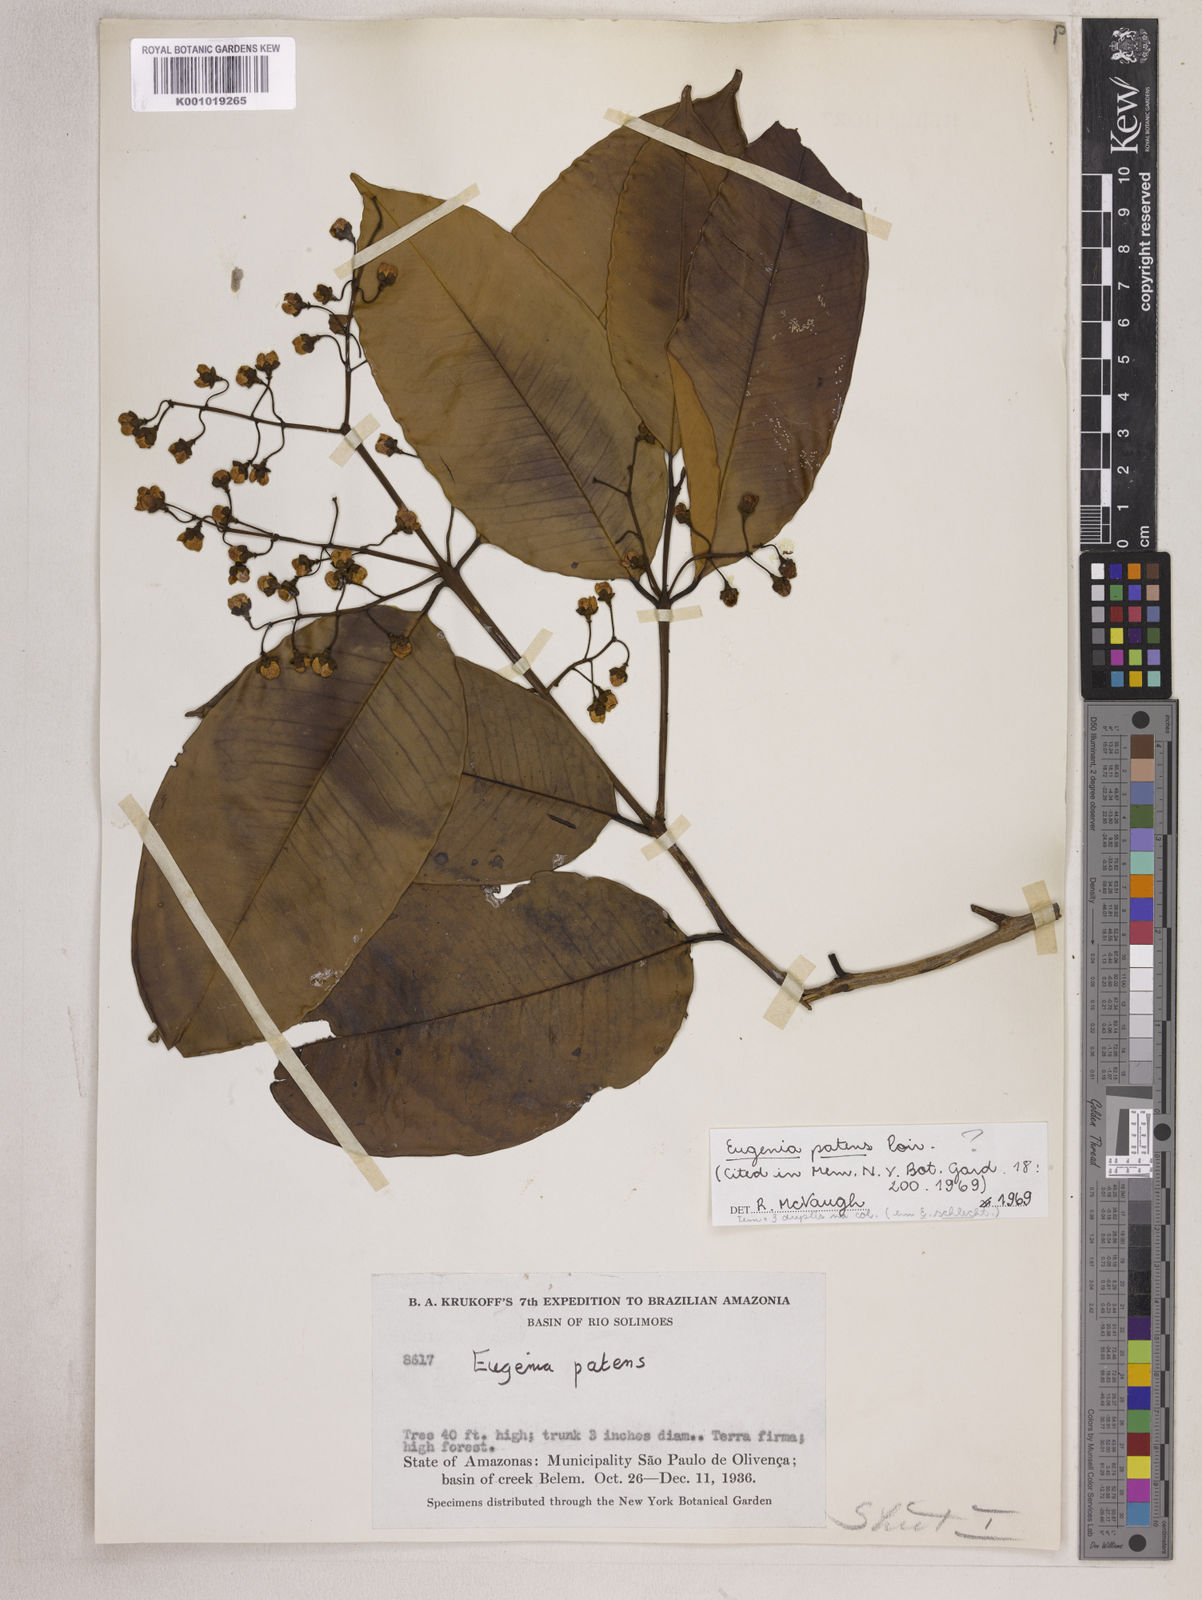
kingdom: Plantae
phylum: Tracheophyta
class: Magnoliopsida
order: Myrtales
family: Myrtaceae
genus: Eugenia
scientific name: Eugenia patens
